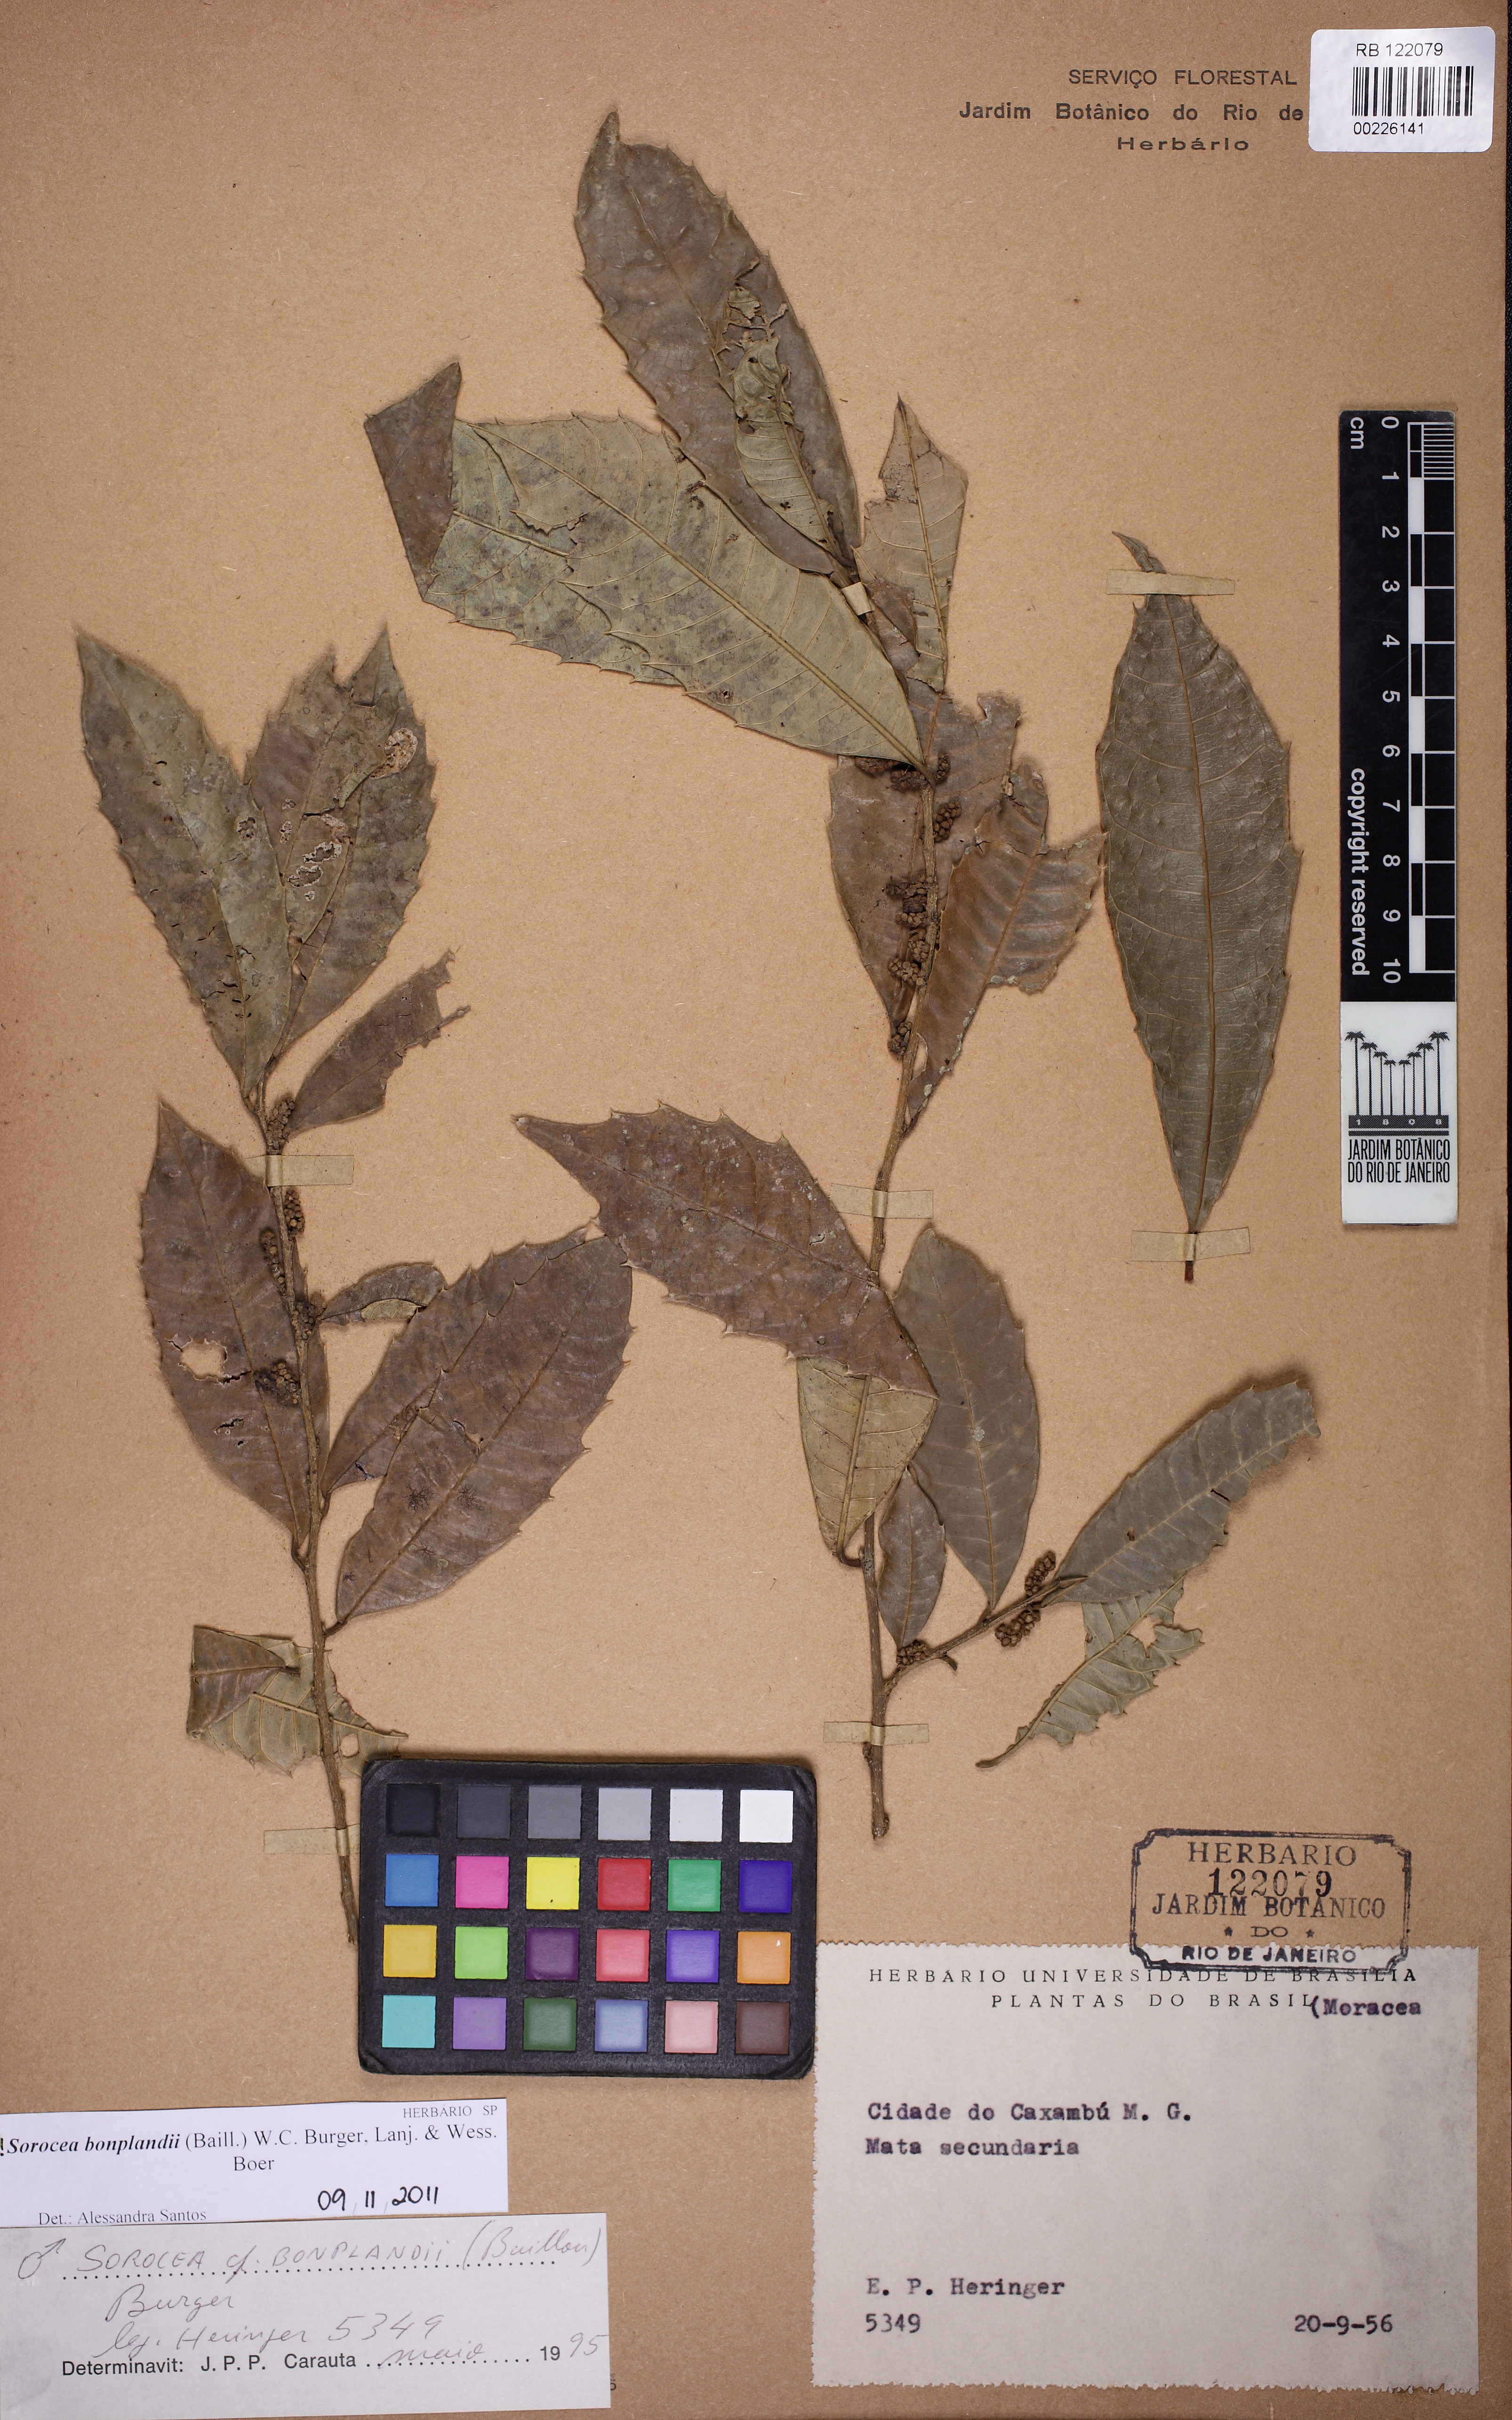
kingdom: Plantae
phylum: Tracheophyta
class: Magnoliopsida
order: Rosales
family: Moraceae
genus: Sorocea
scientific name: Sorocea bonplandii
